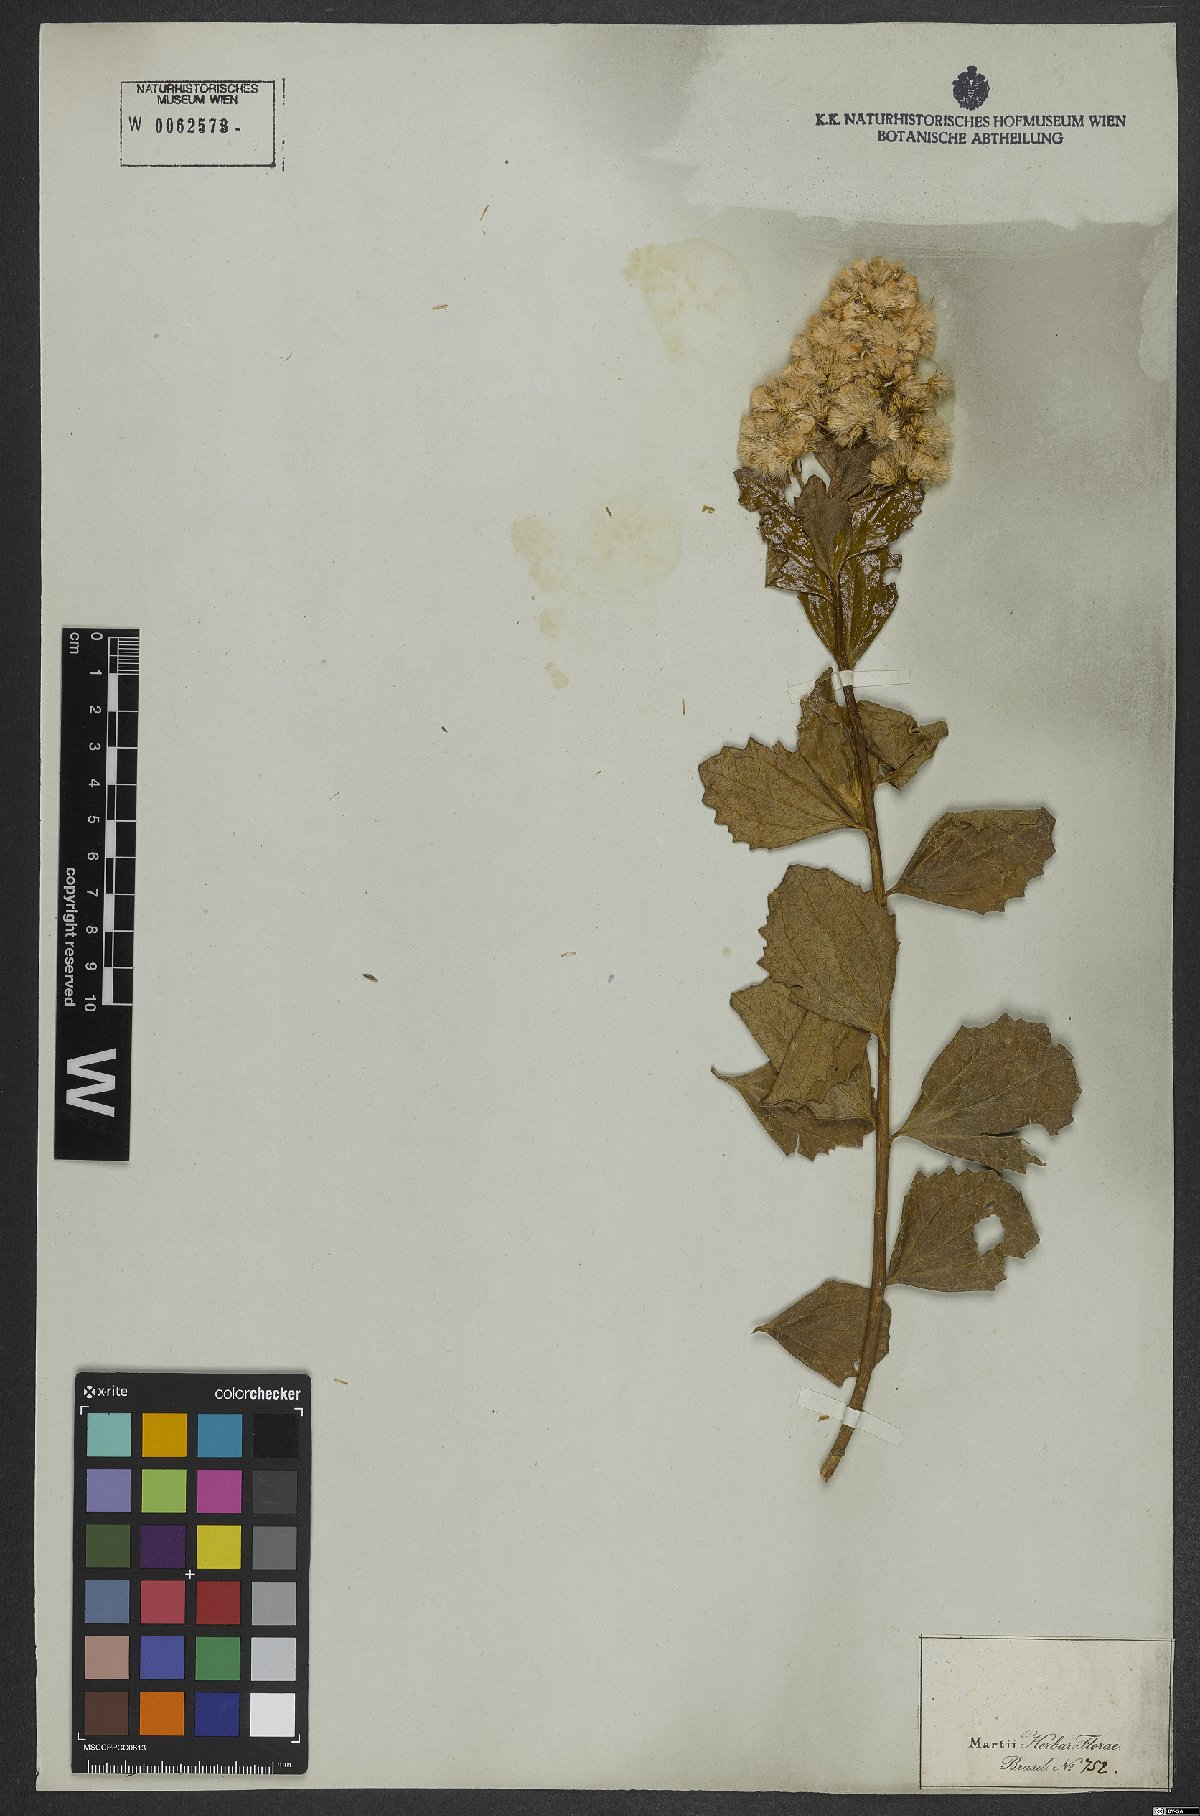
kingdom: Plantae
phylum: Tracheophyta
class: Magnoliopsida
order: Asterales
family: Asteraceae
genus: Baccharis
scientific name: Baccharis tridentata
